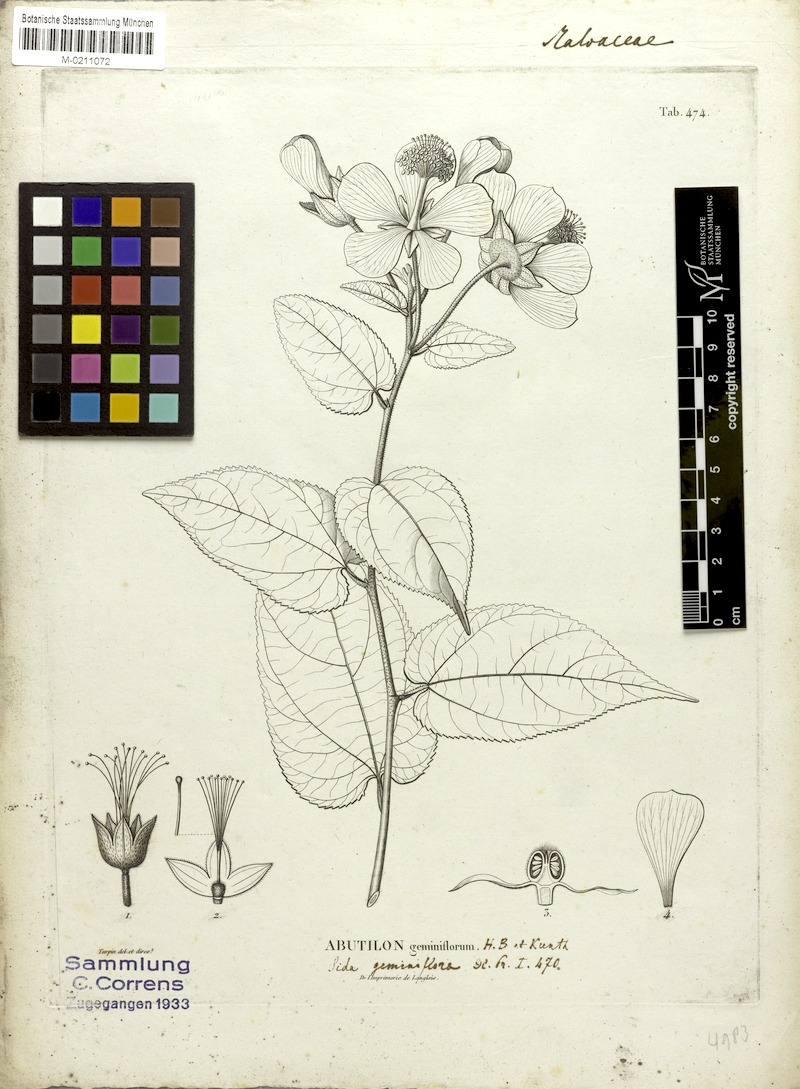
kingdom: Plantae
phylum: Tracheophyta
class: Magnoliopsida
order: Malvales
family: Malvaceae
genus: Callianthe
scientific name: Callianthe geminiflora
